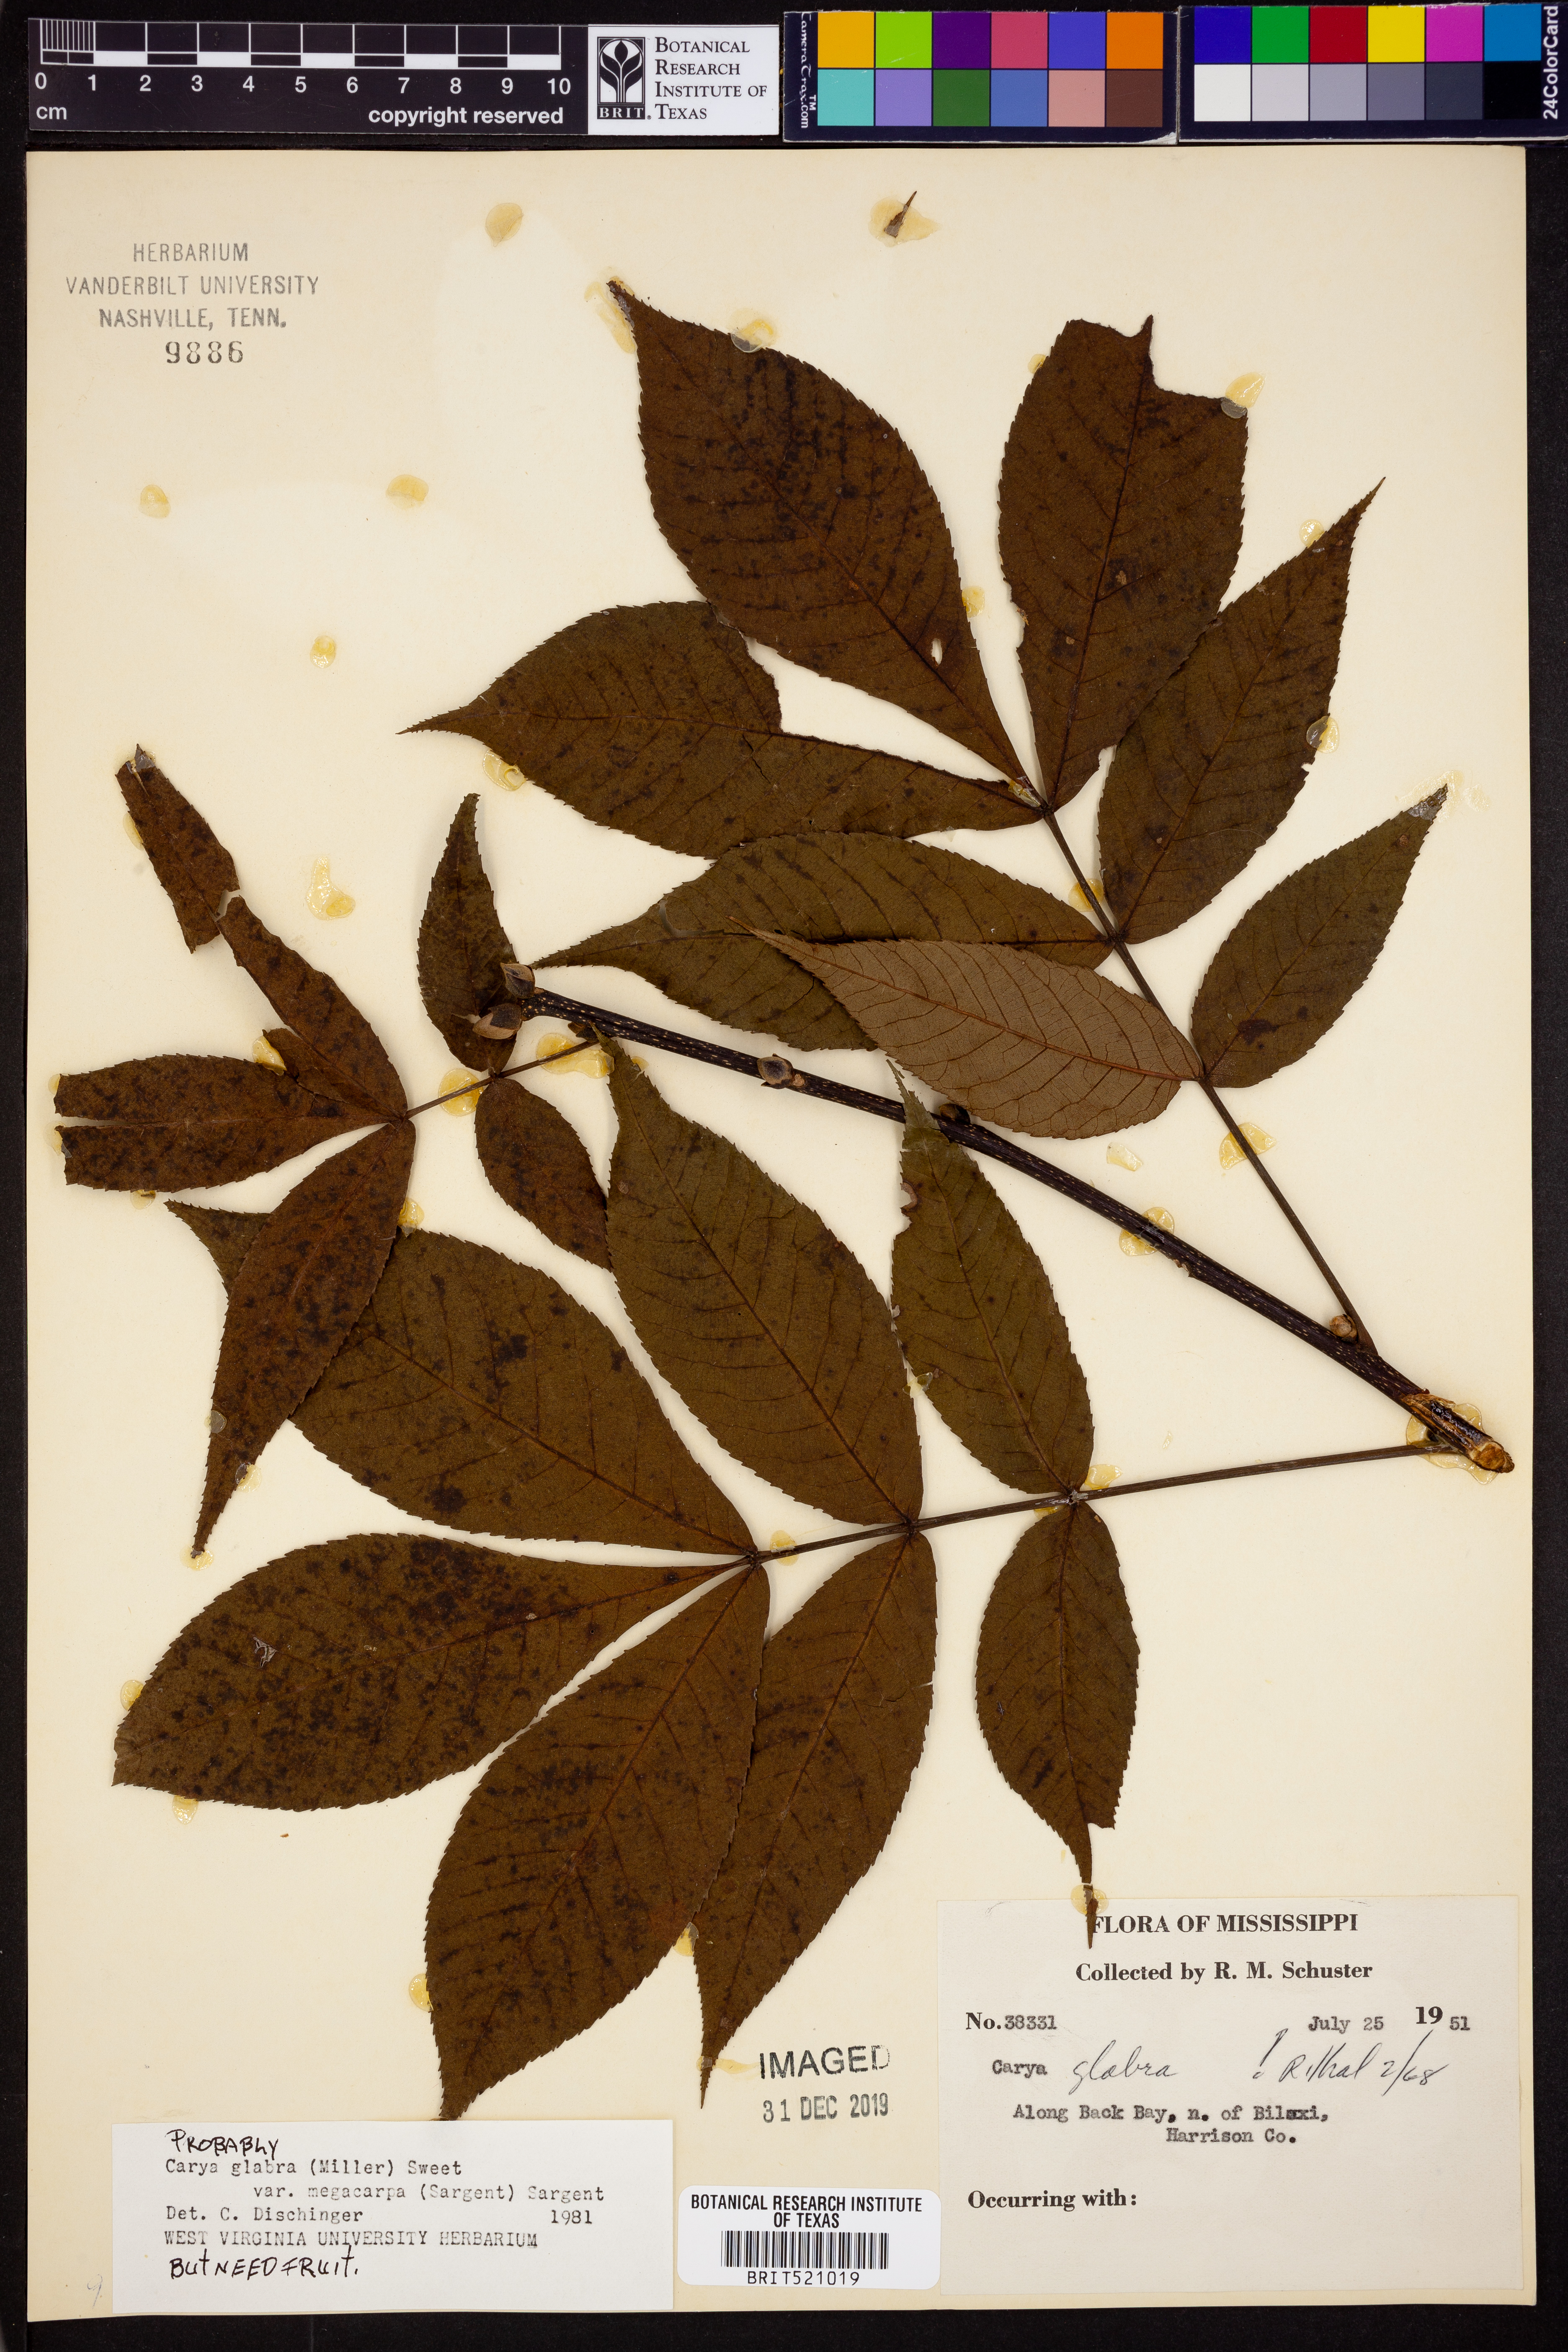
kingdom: Plantae
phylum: Tracheophyta
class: Magnoliopsida
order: Fagales
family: Juglandaceae
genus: Carya
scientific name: Carya glabra
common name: Pignut hickory
